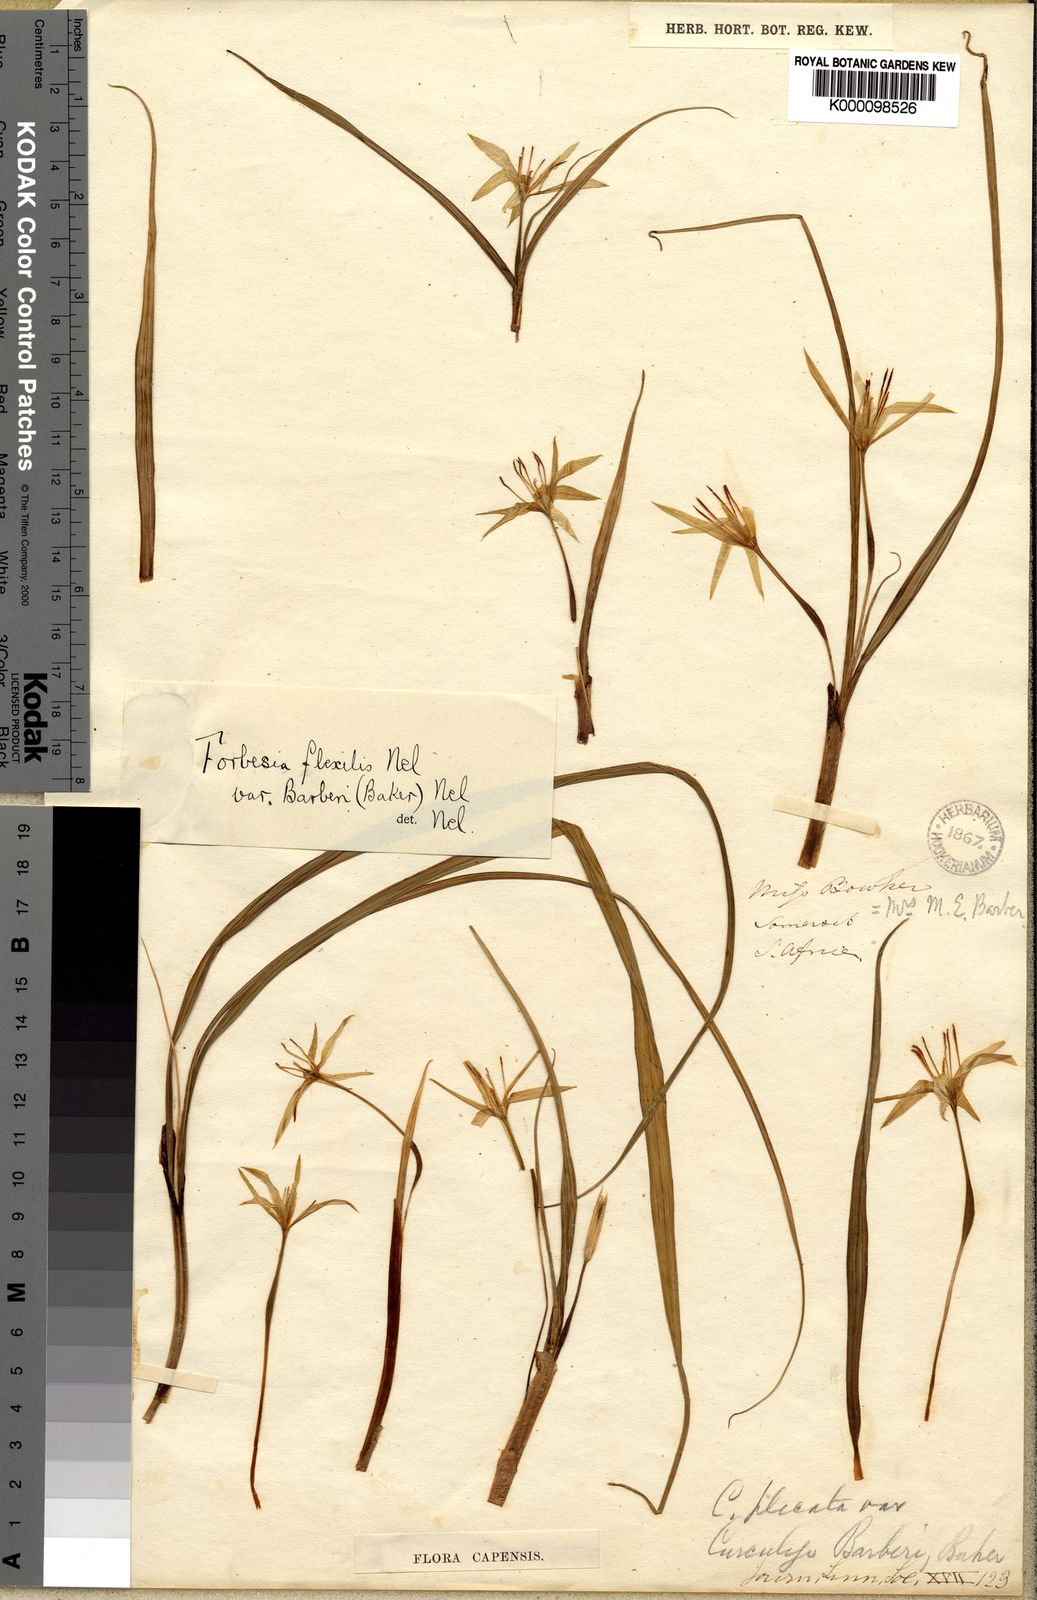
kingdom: Plantae
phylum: Tracheophyta
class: Liliopsida
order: Asparagales
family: Hypoxidaceae
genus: Empodium
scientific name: Empodium flexile
